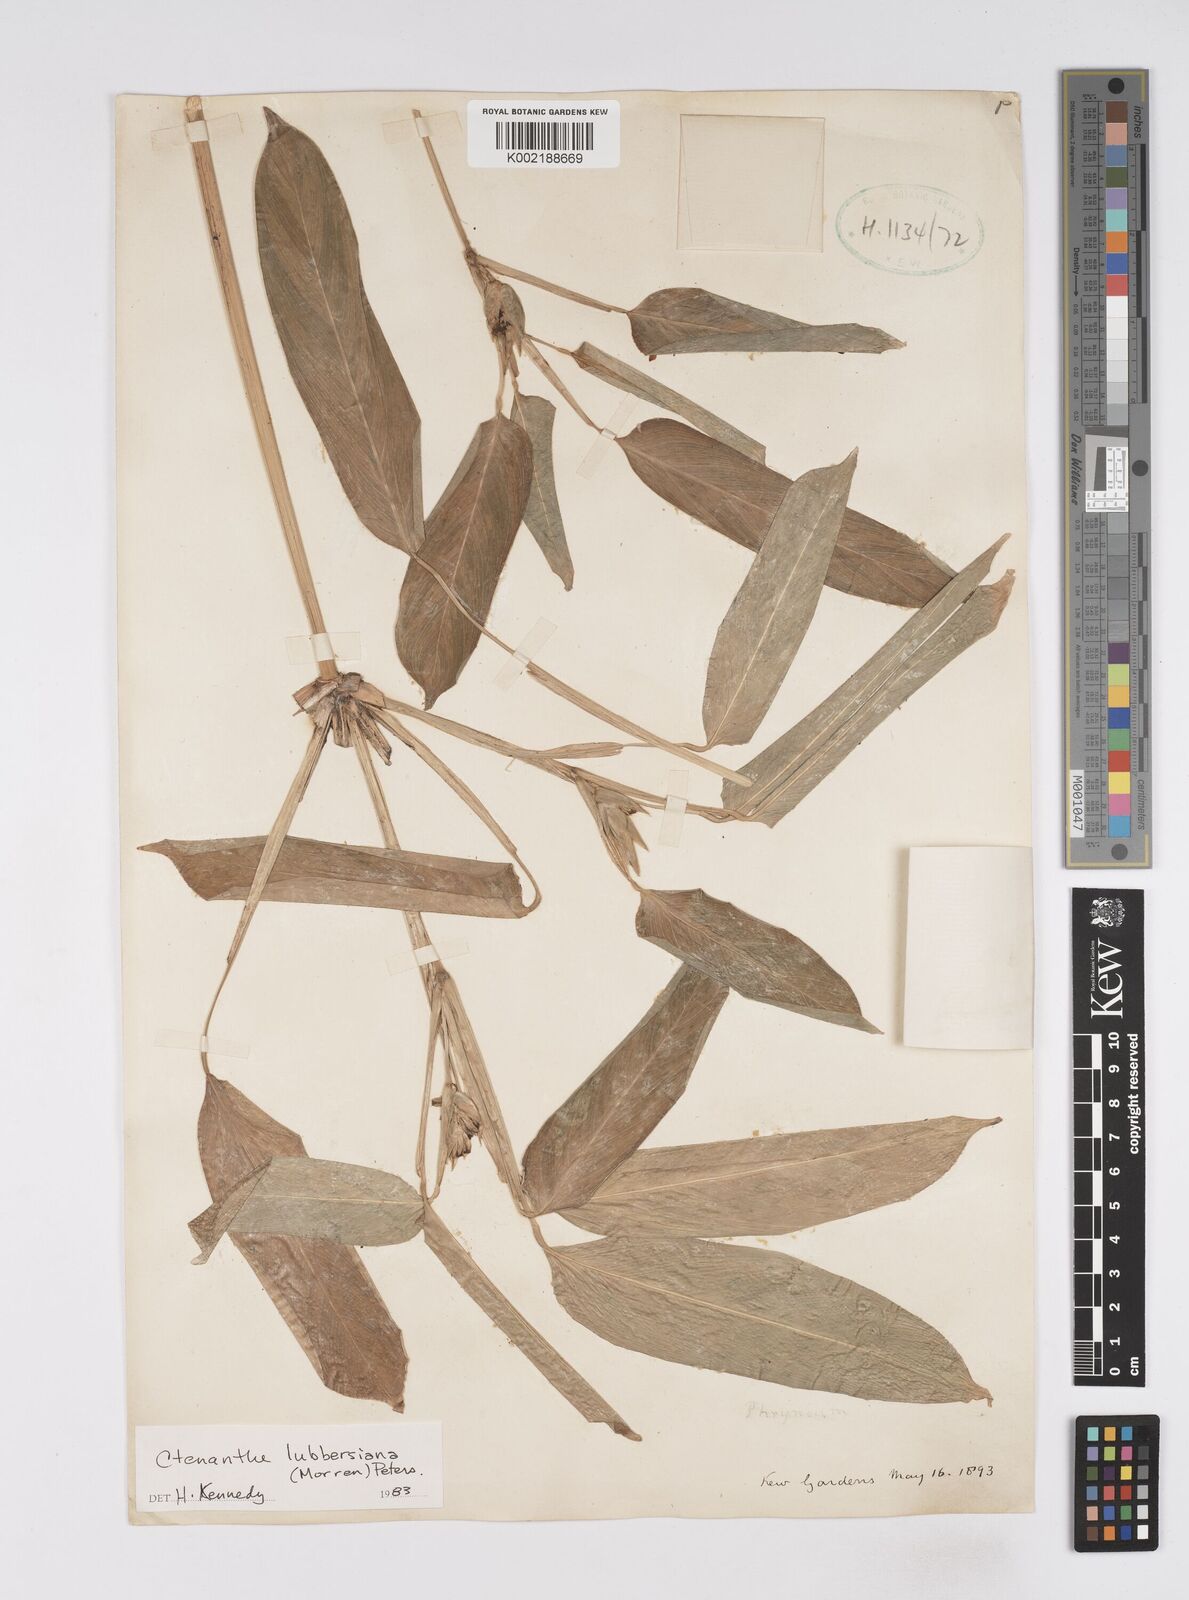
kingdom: Plantae
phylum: Tracheophyta
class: Liliopsida
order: Zingiberales
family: Marantaceae
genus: Ctenanthe
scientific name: Ctenanthe lubbersiana
